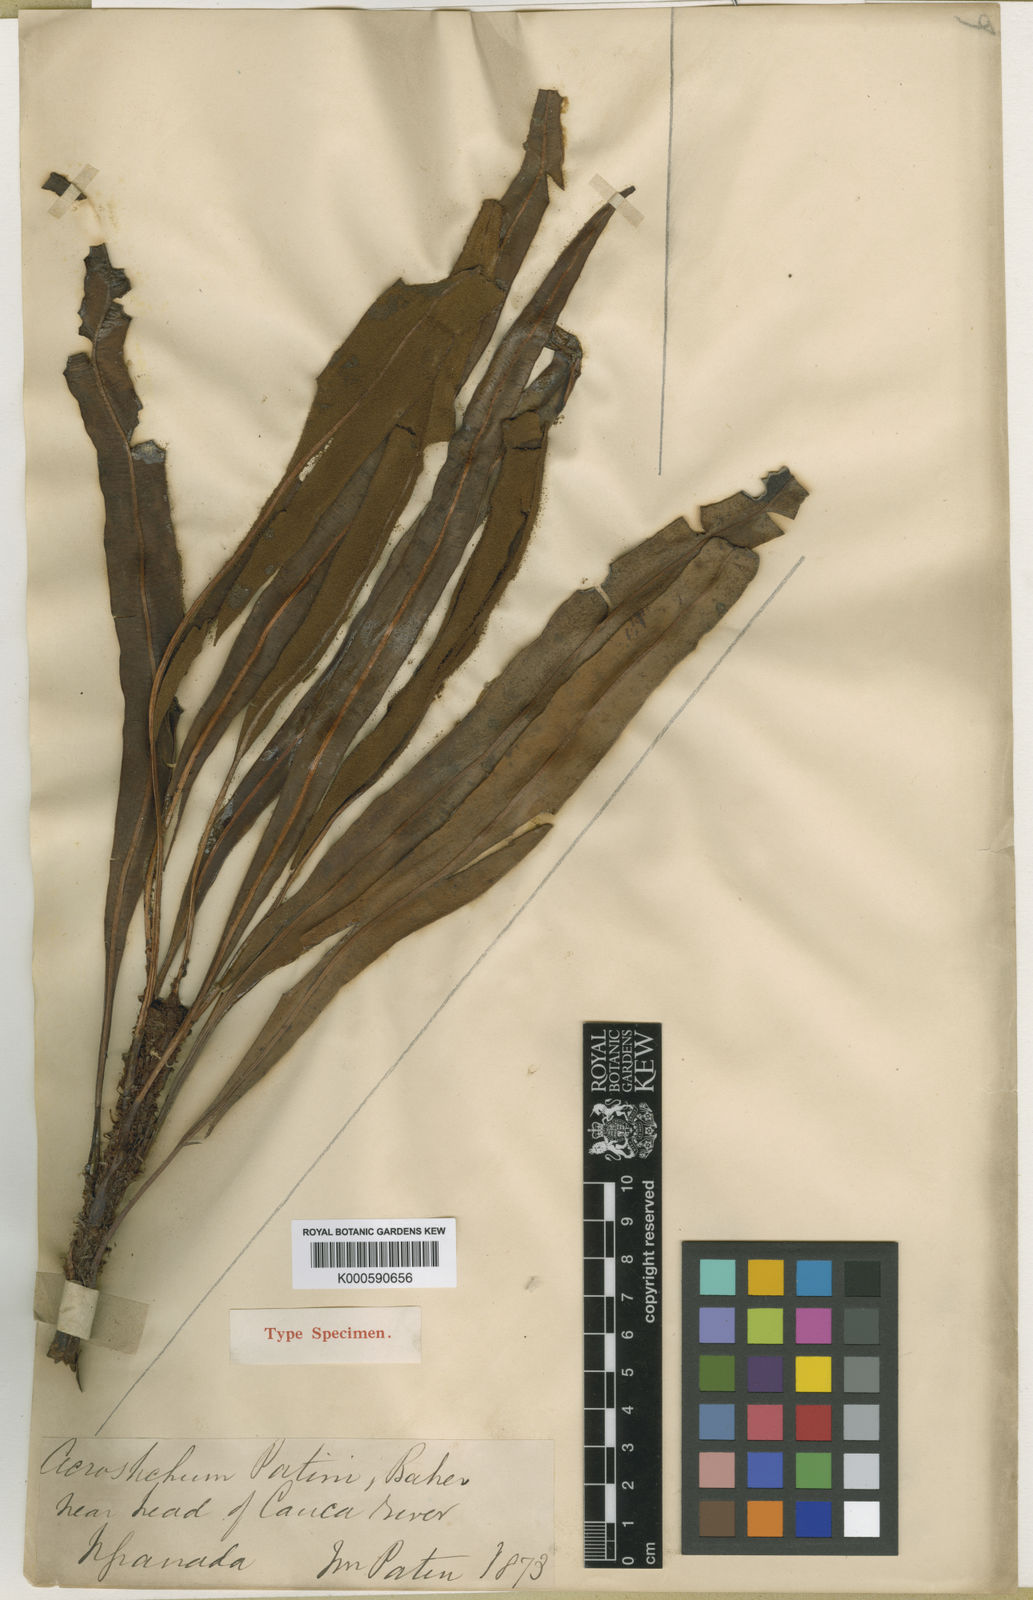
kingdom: Plantae
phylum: Tracheophyta
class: Polypodiopsida
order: Polypodiales
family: Dryopteridaceae
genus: Elaphoglossum
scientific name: Elaphoglossum patini
